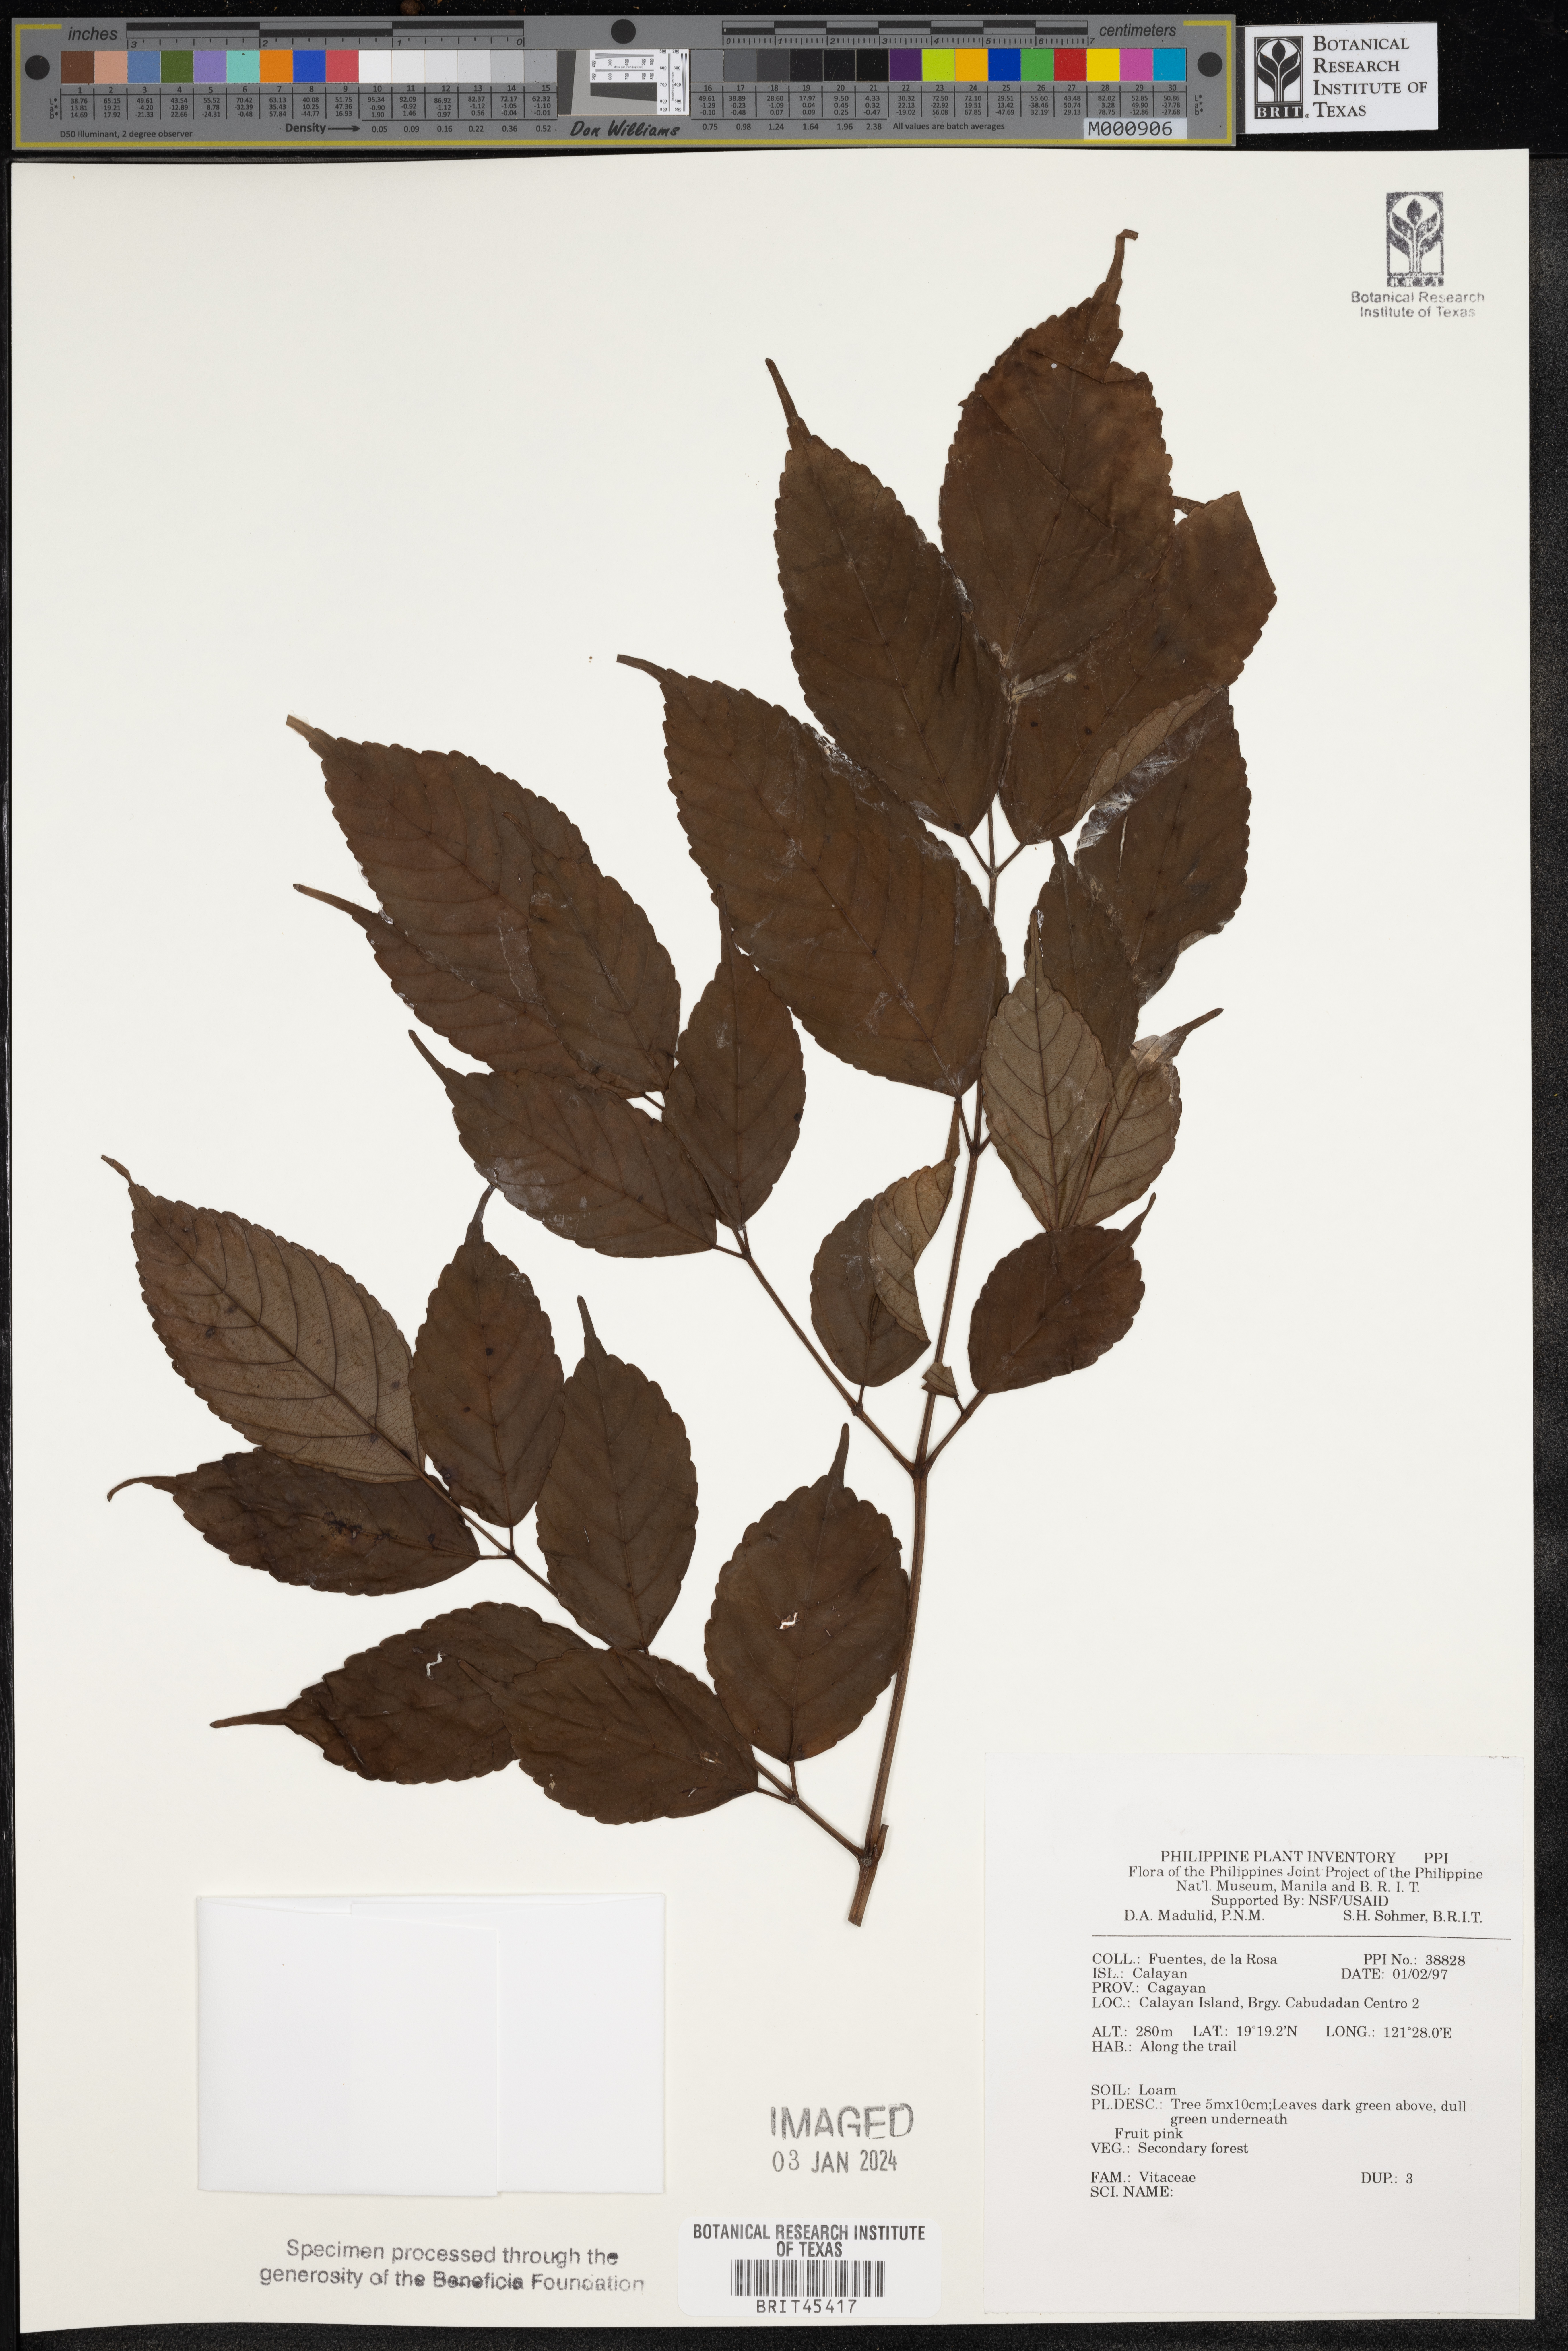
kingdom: Plantae
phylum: Tracheophyta
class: Magnoliopsida
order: Vitales
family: Vitaceae
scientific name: Vitaceae
